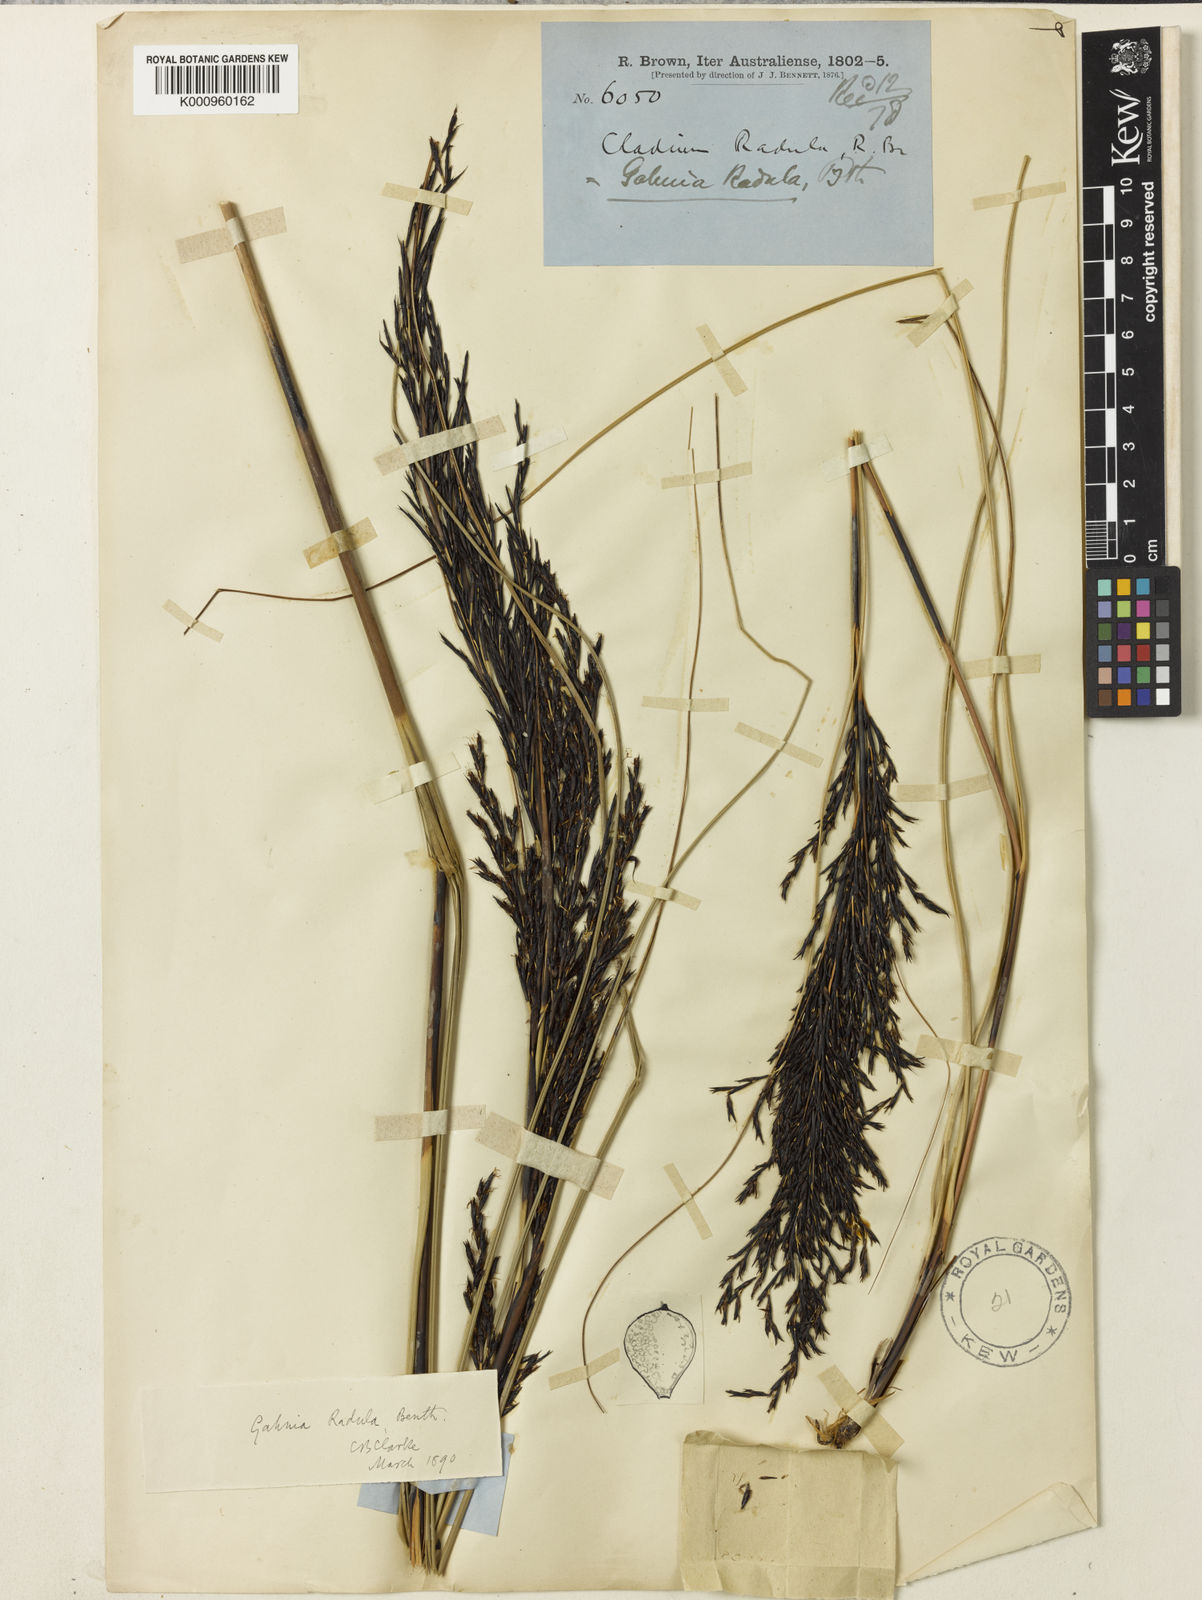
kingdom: Plantae
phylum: Tracheophyta
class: Liliopsida
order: Poales
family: Cyperaceae
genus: Gahnia
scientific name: Gahnia radula
